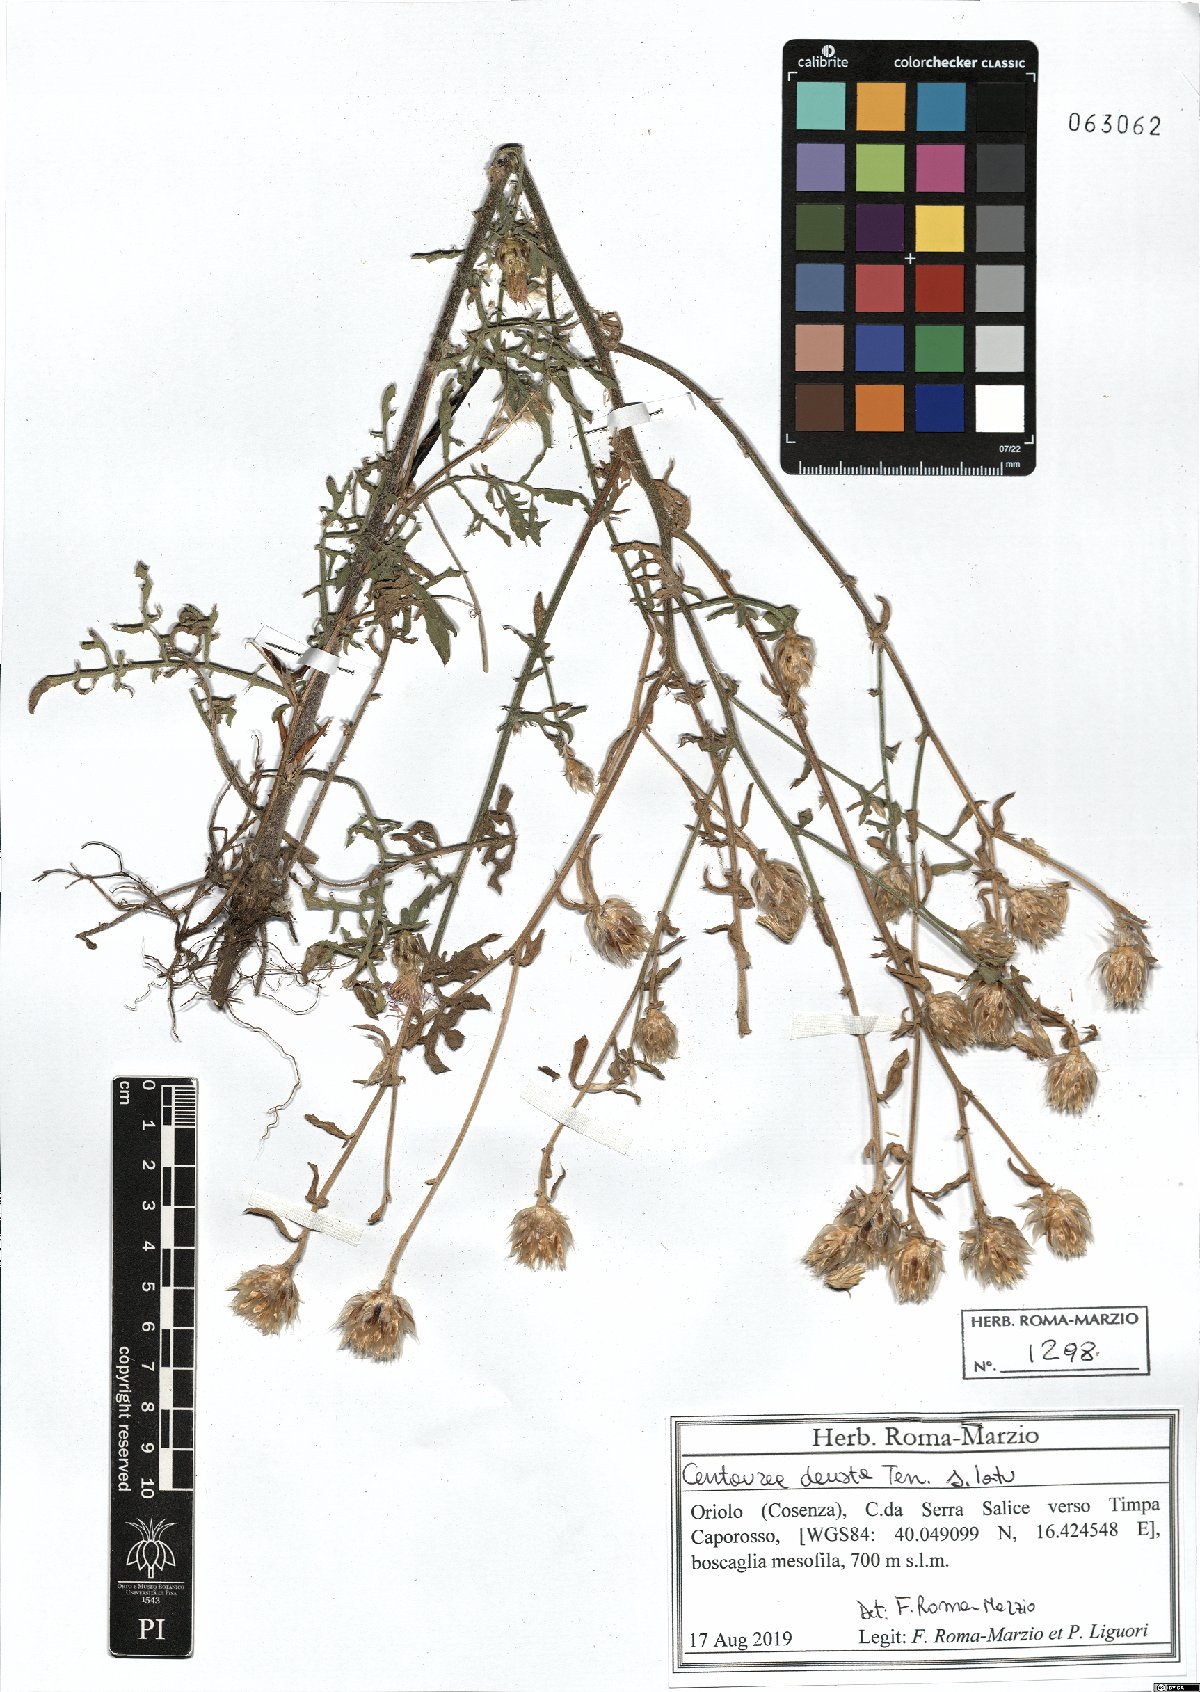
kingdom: Plantae
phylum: Tracheophyta
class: Magnoliopsida
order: Asterales
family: Asteraceae
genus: Centaurea
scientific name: Centaurea deusta
